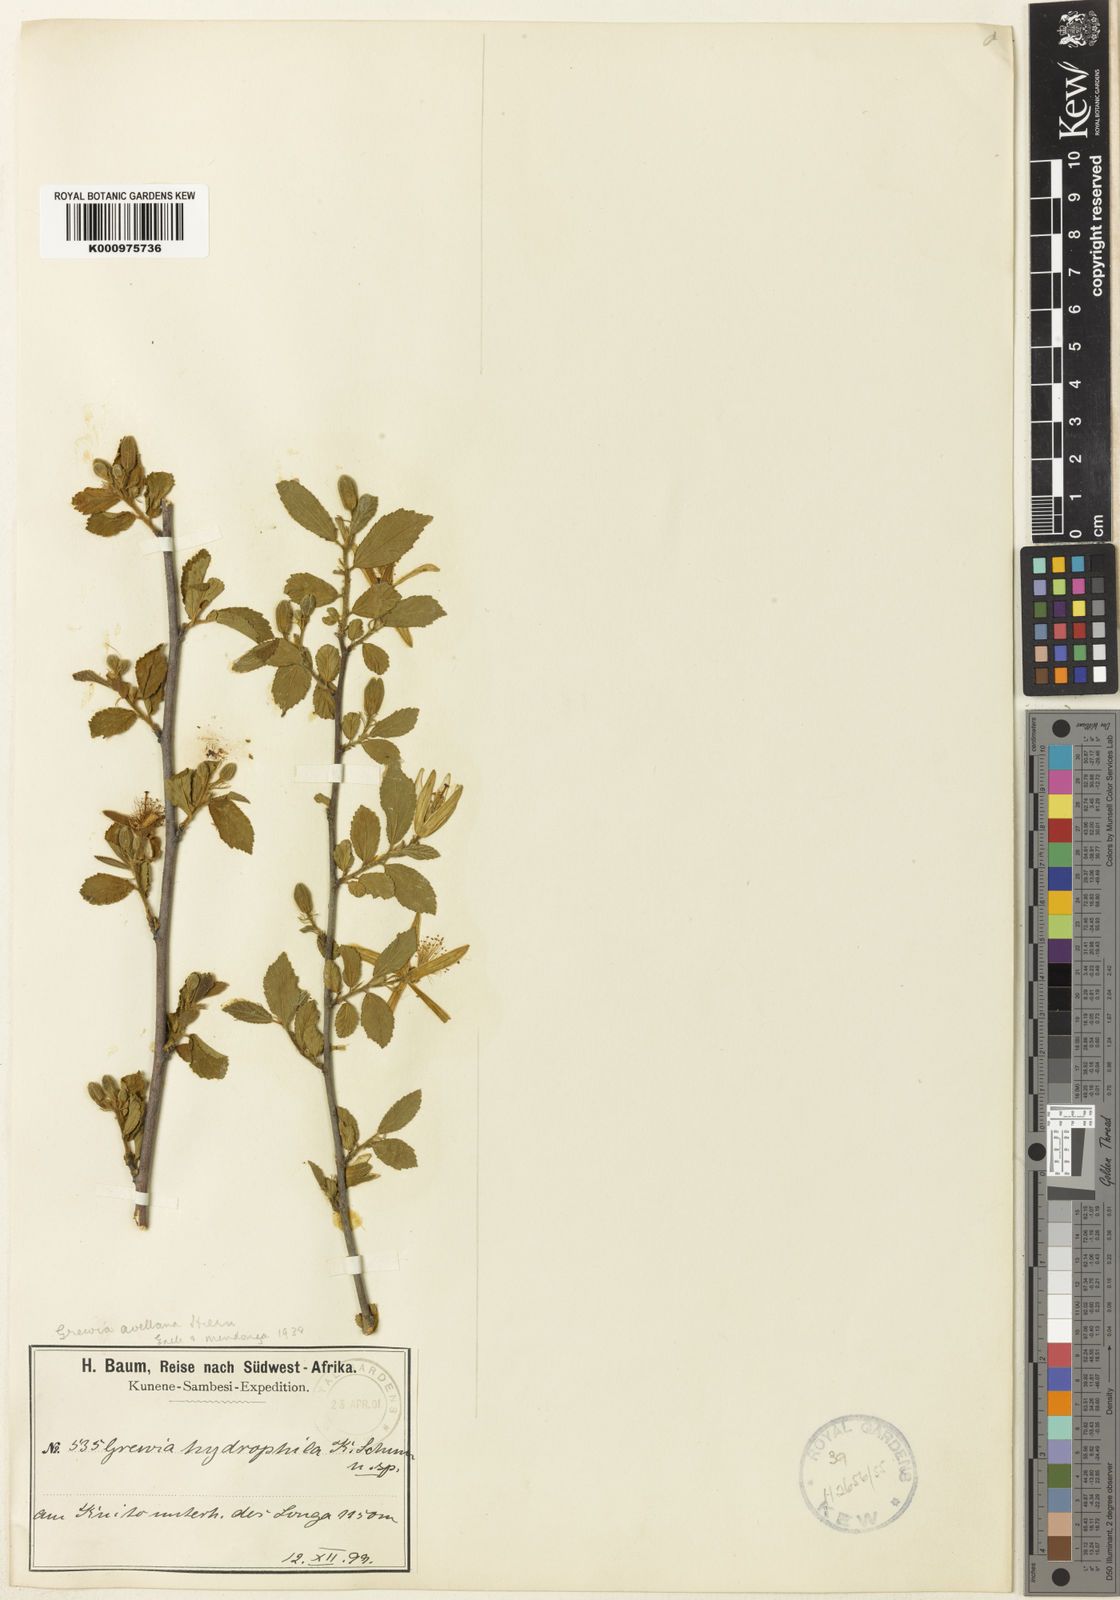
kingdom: Plantae
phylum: Tracheophyta
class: Magnoliopsida
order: Malvales
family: Malvaceae
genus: Grewia
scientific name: Grewia avellana
